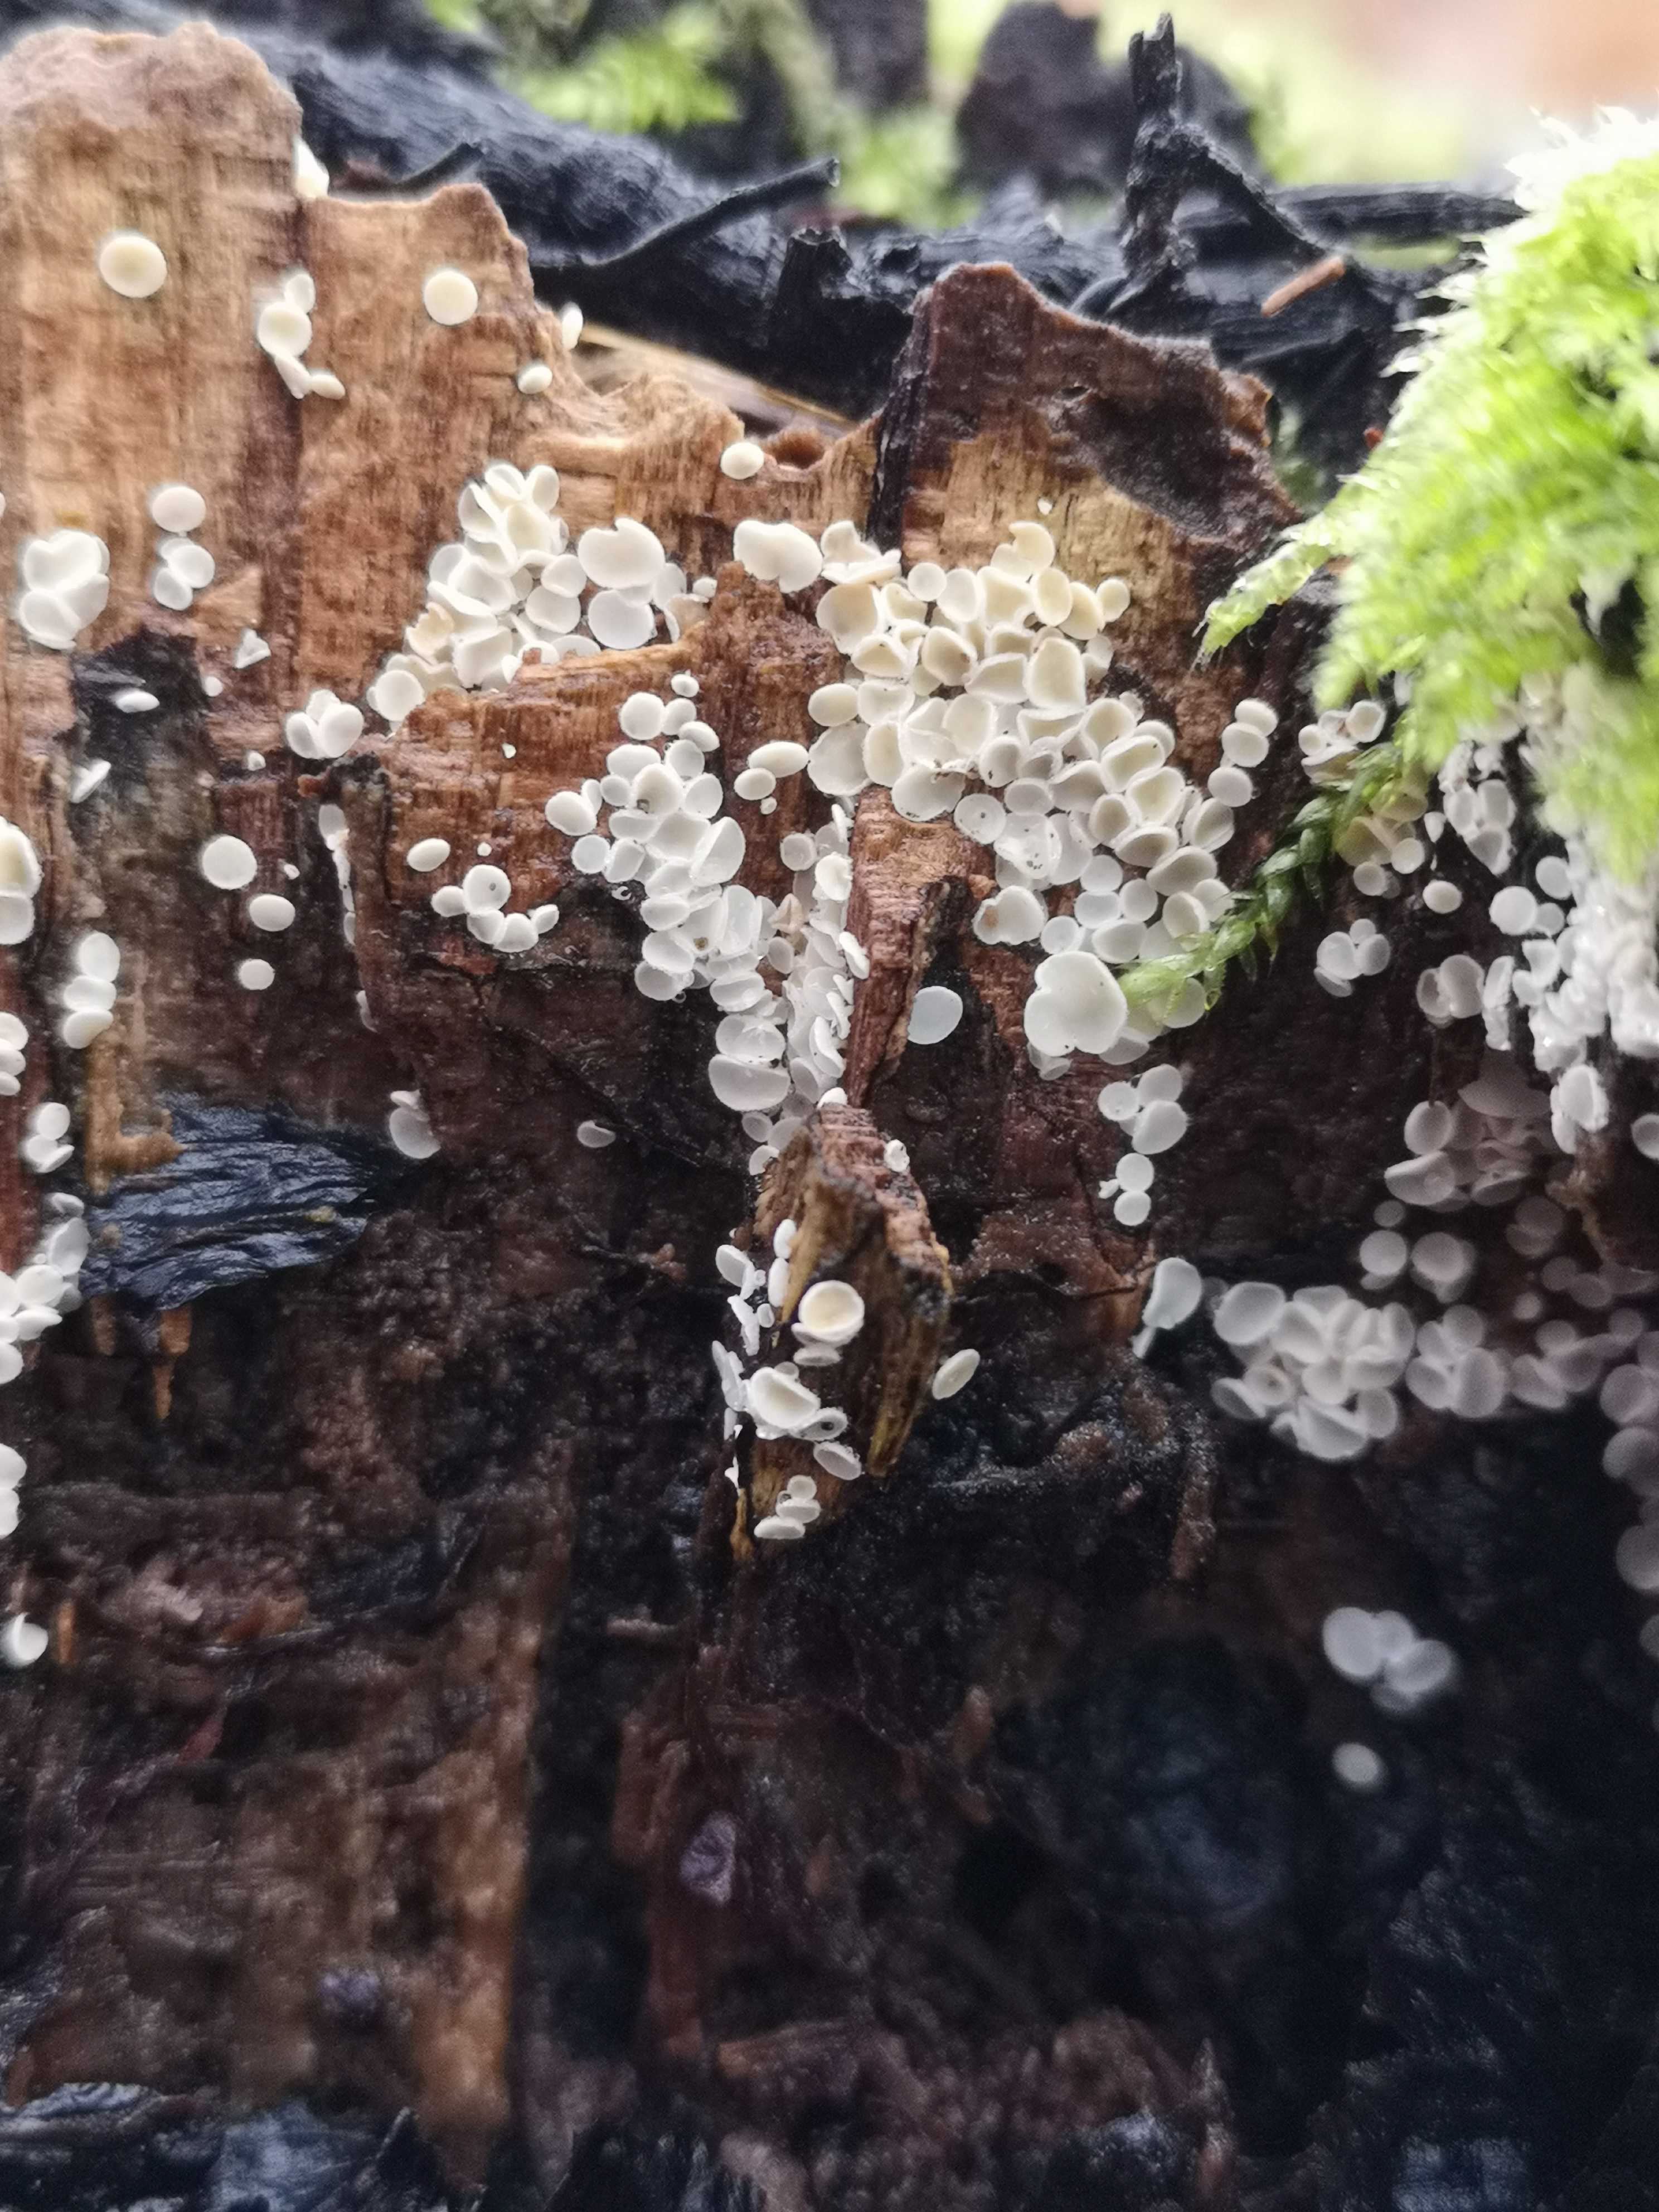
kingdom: Fungi
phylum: Ascomycota
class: Leotiomycetes
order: Helotiales
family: Lachnaceae
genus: Lachnum
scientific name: Lachnum impudicum
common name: vinter-frynseskive
